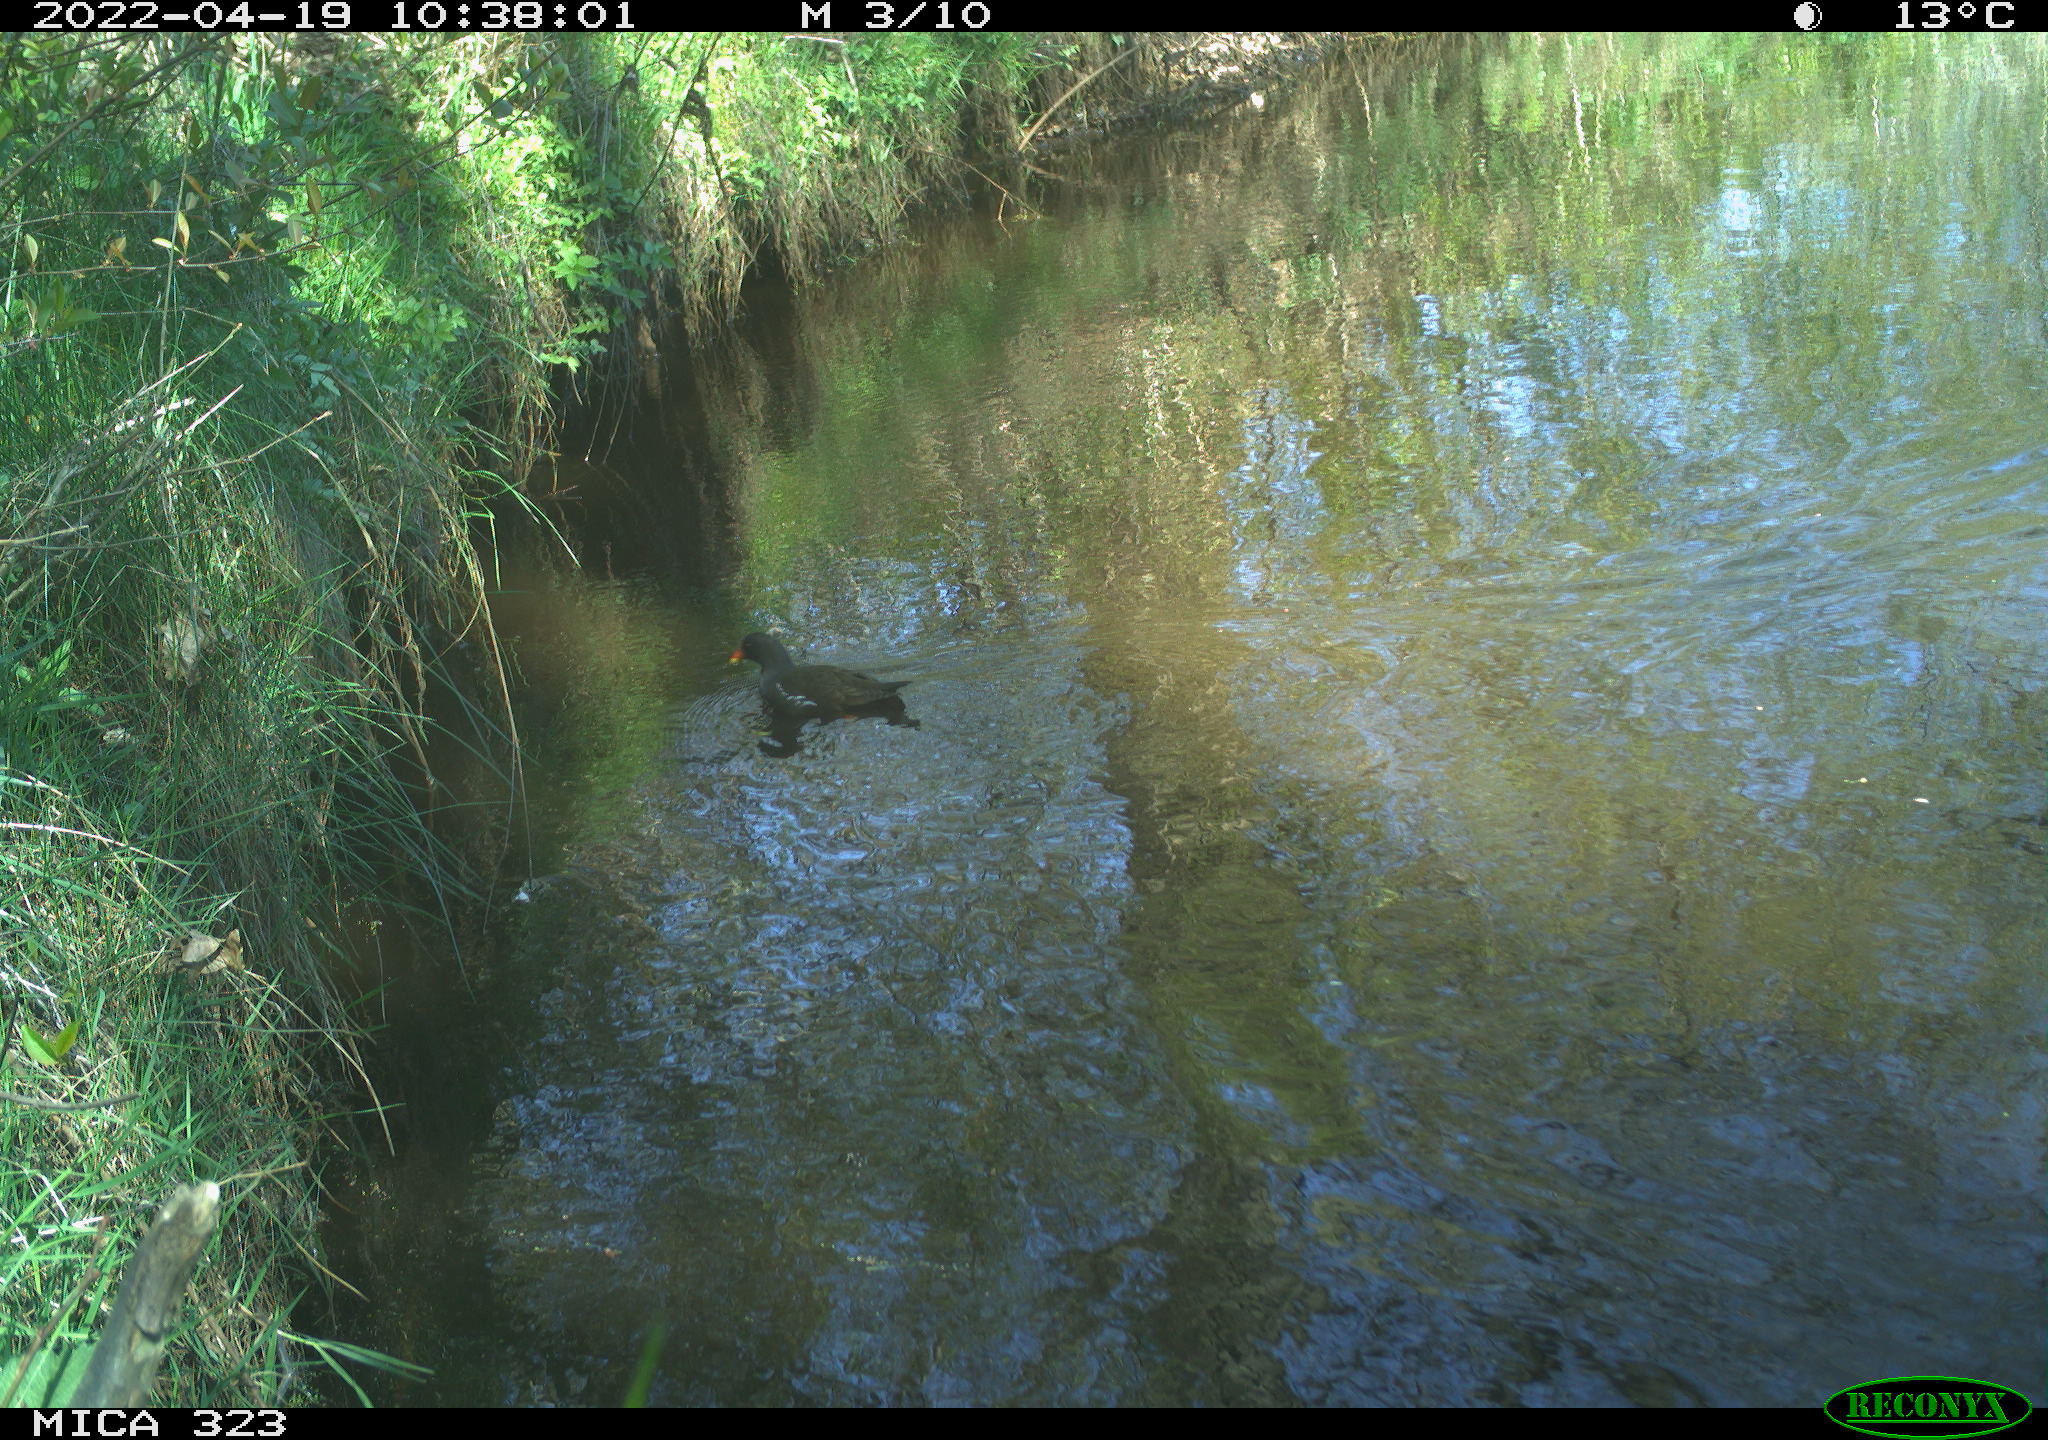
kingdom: Animalia
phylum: Chordata
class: Aves
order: Gruiformes
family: Rallidae
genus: Gallinula
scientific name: Gallinula chloropus
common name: Common moorhen
